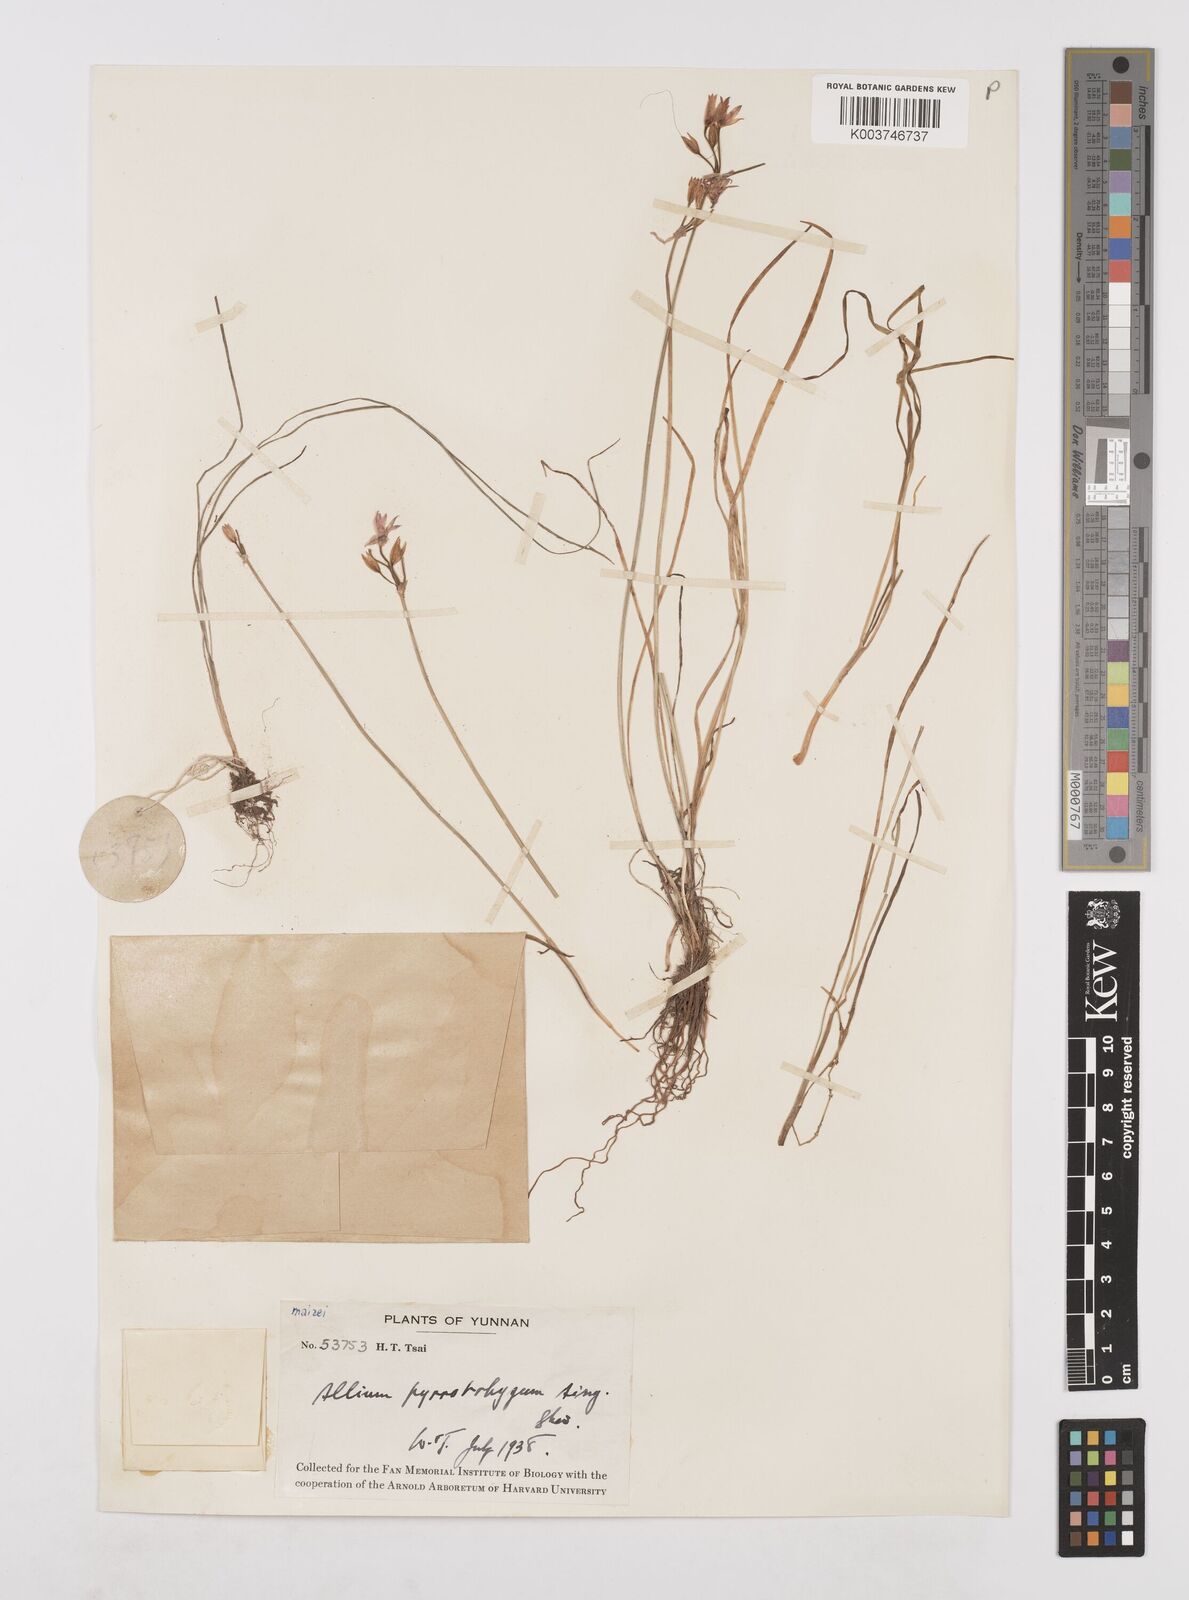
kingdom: Plantae
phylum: Tracheophyta
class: Liliopsida
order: Asparagales
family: Amaryllidaceae
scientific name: Amaryllidaceae
